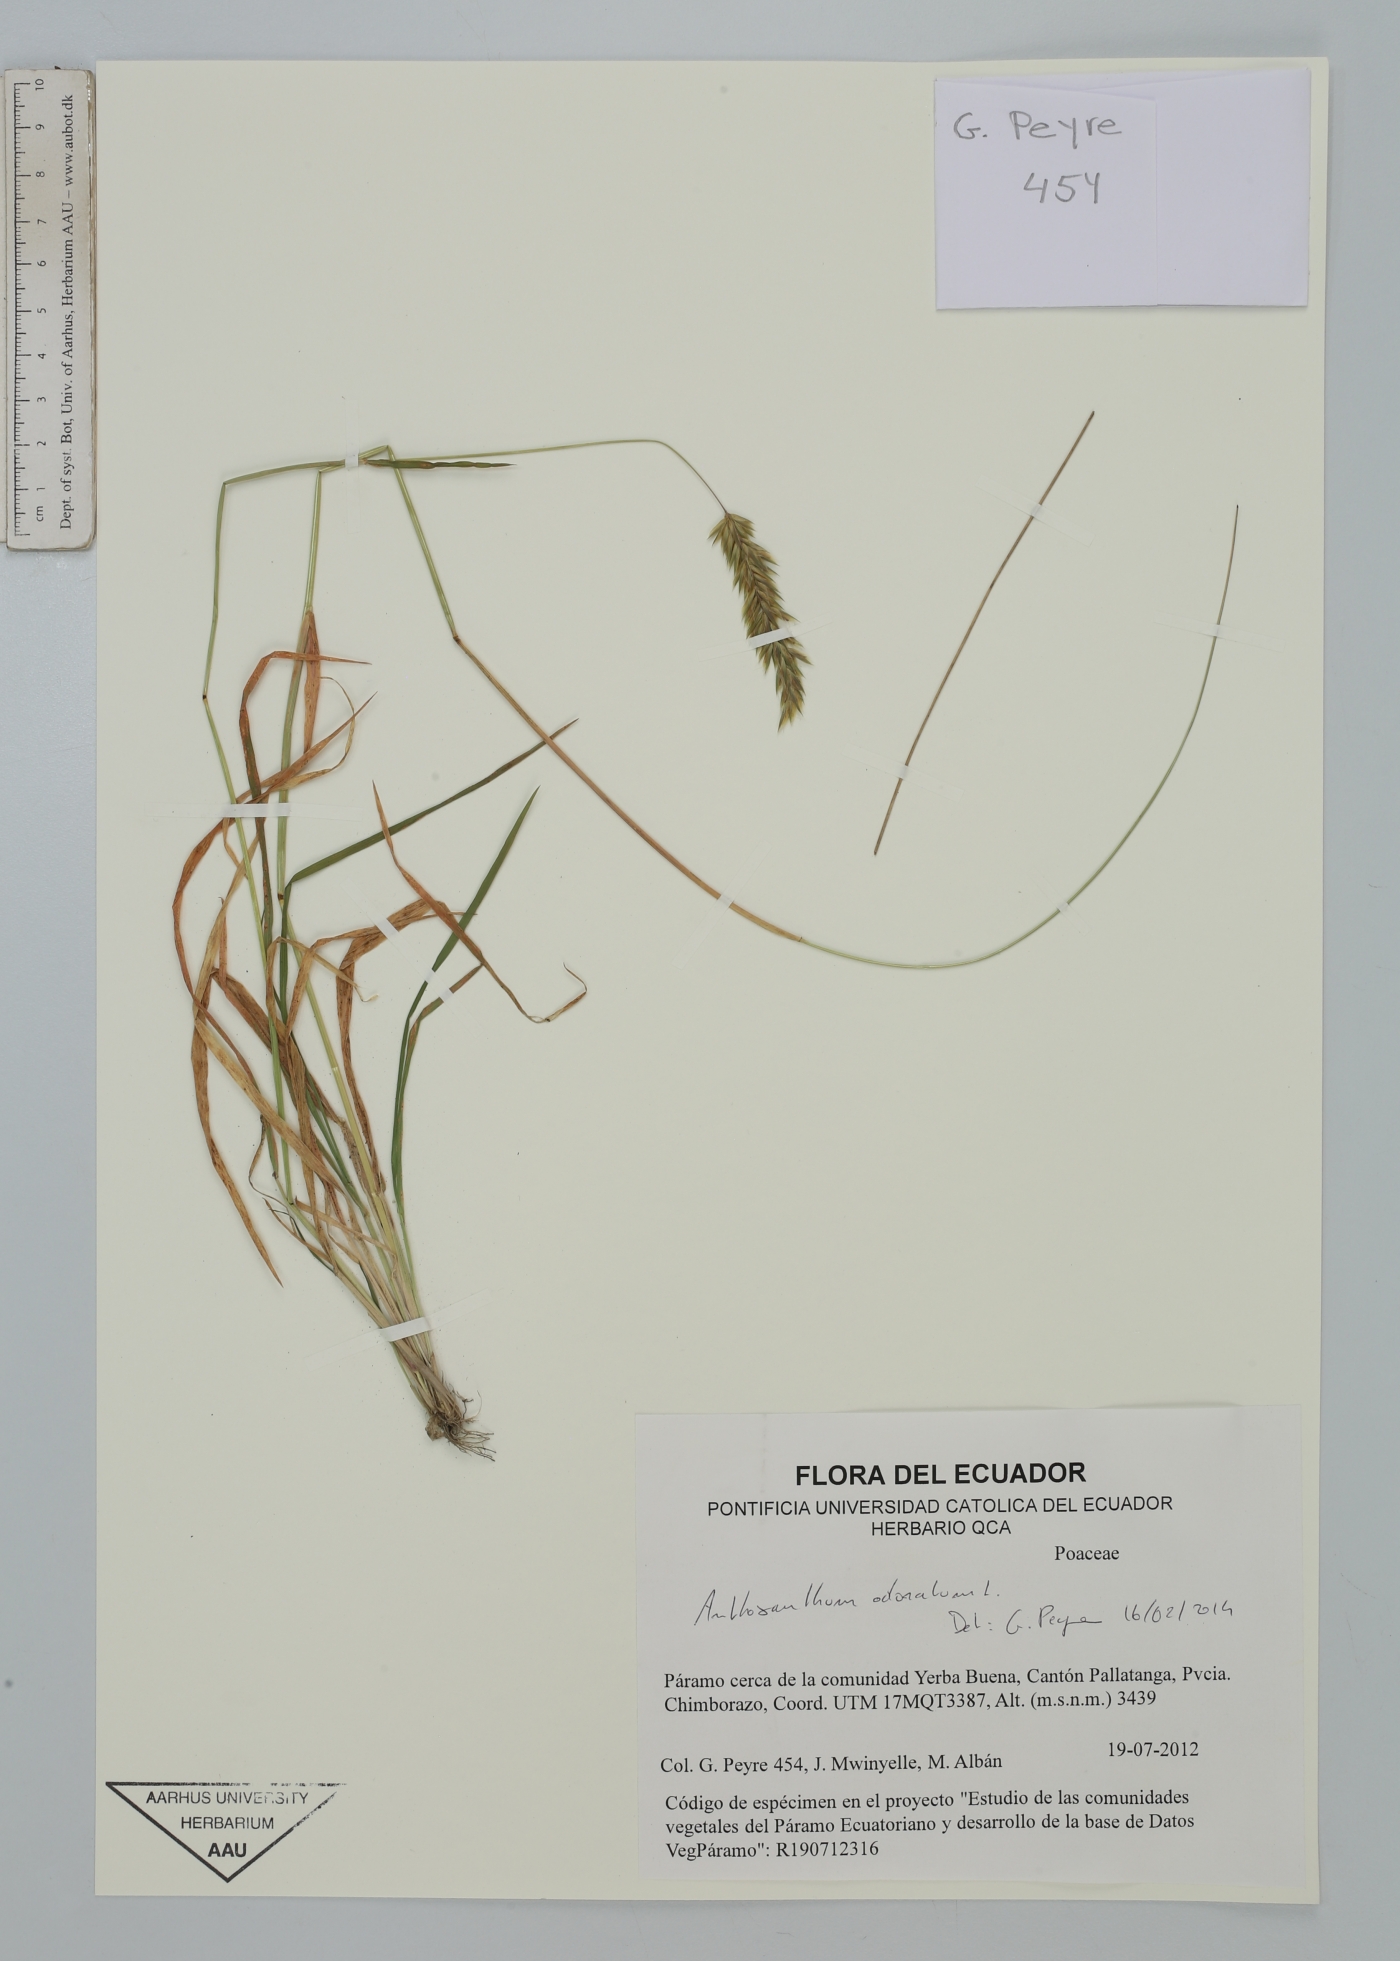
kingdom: Plantae
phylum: Tracheophyta
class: Liliopsida
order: Poales
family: Poaceae
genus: Anthoxanthum
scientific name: Anthoxanthum odoratum
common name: Sweet vernalgrass
